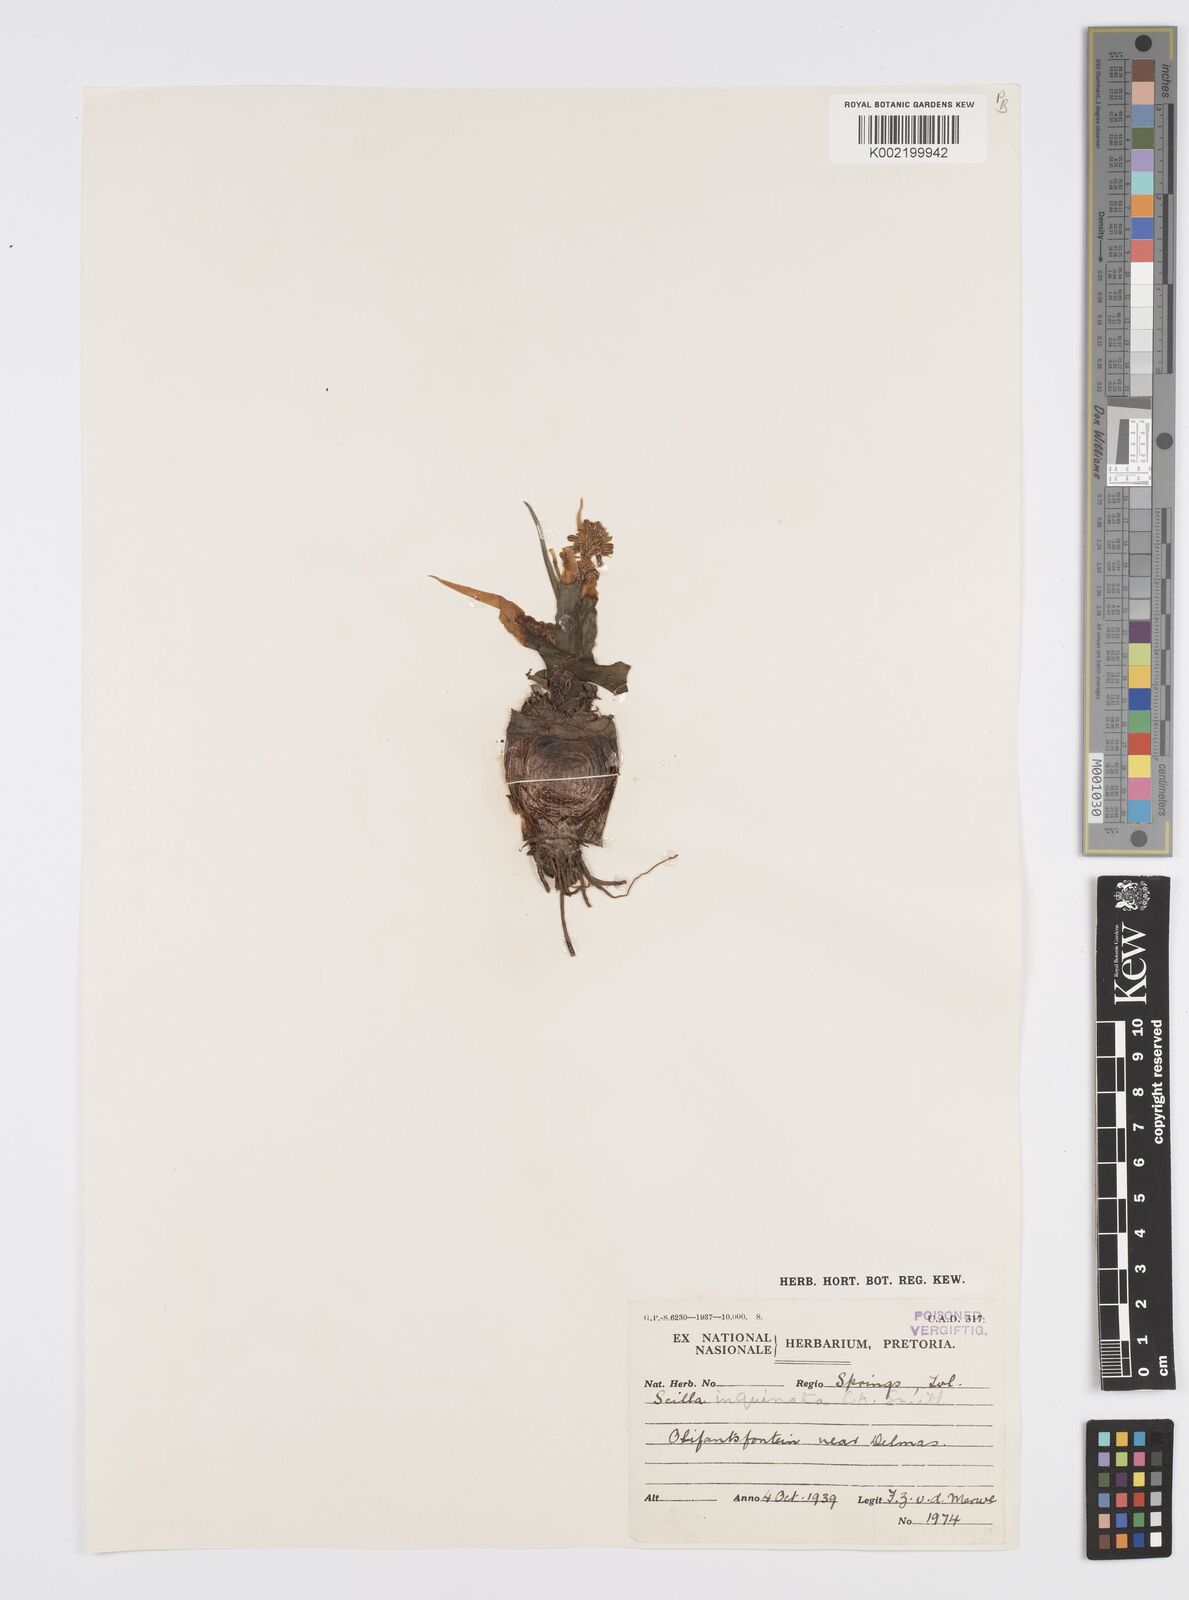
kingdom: Plantae
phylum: Tracheophyta
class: Liliopsida
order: Asparagales
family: Asparagaceae
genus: Ledebouria
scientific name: Ledebouria inquinata
